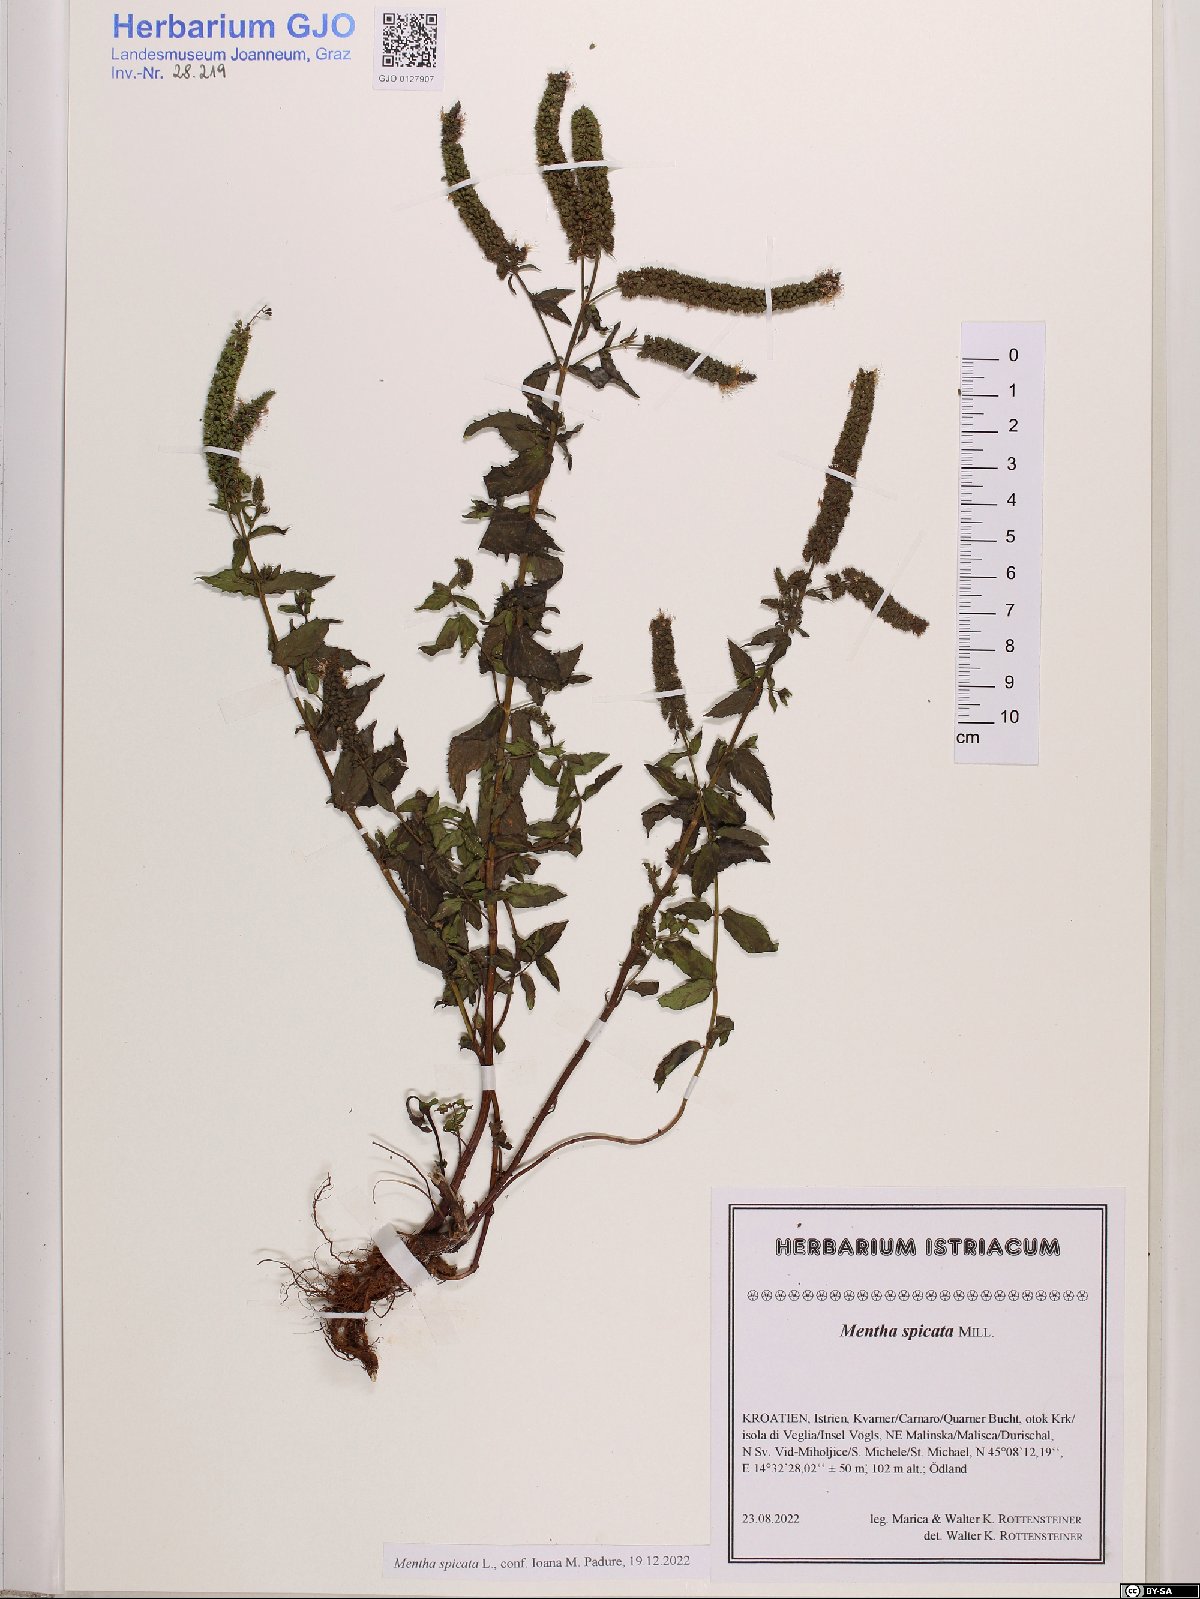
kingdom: Plantae
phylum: Tracheophyta
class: Magnoliopsida
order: Lamiales
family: Lamiaceae
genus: Mentha
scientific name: Mentha spicata
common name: Spearmint
